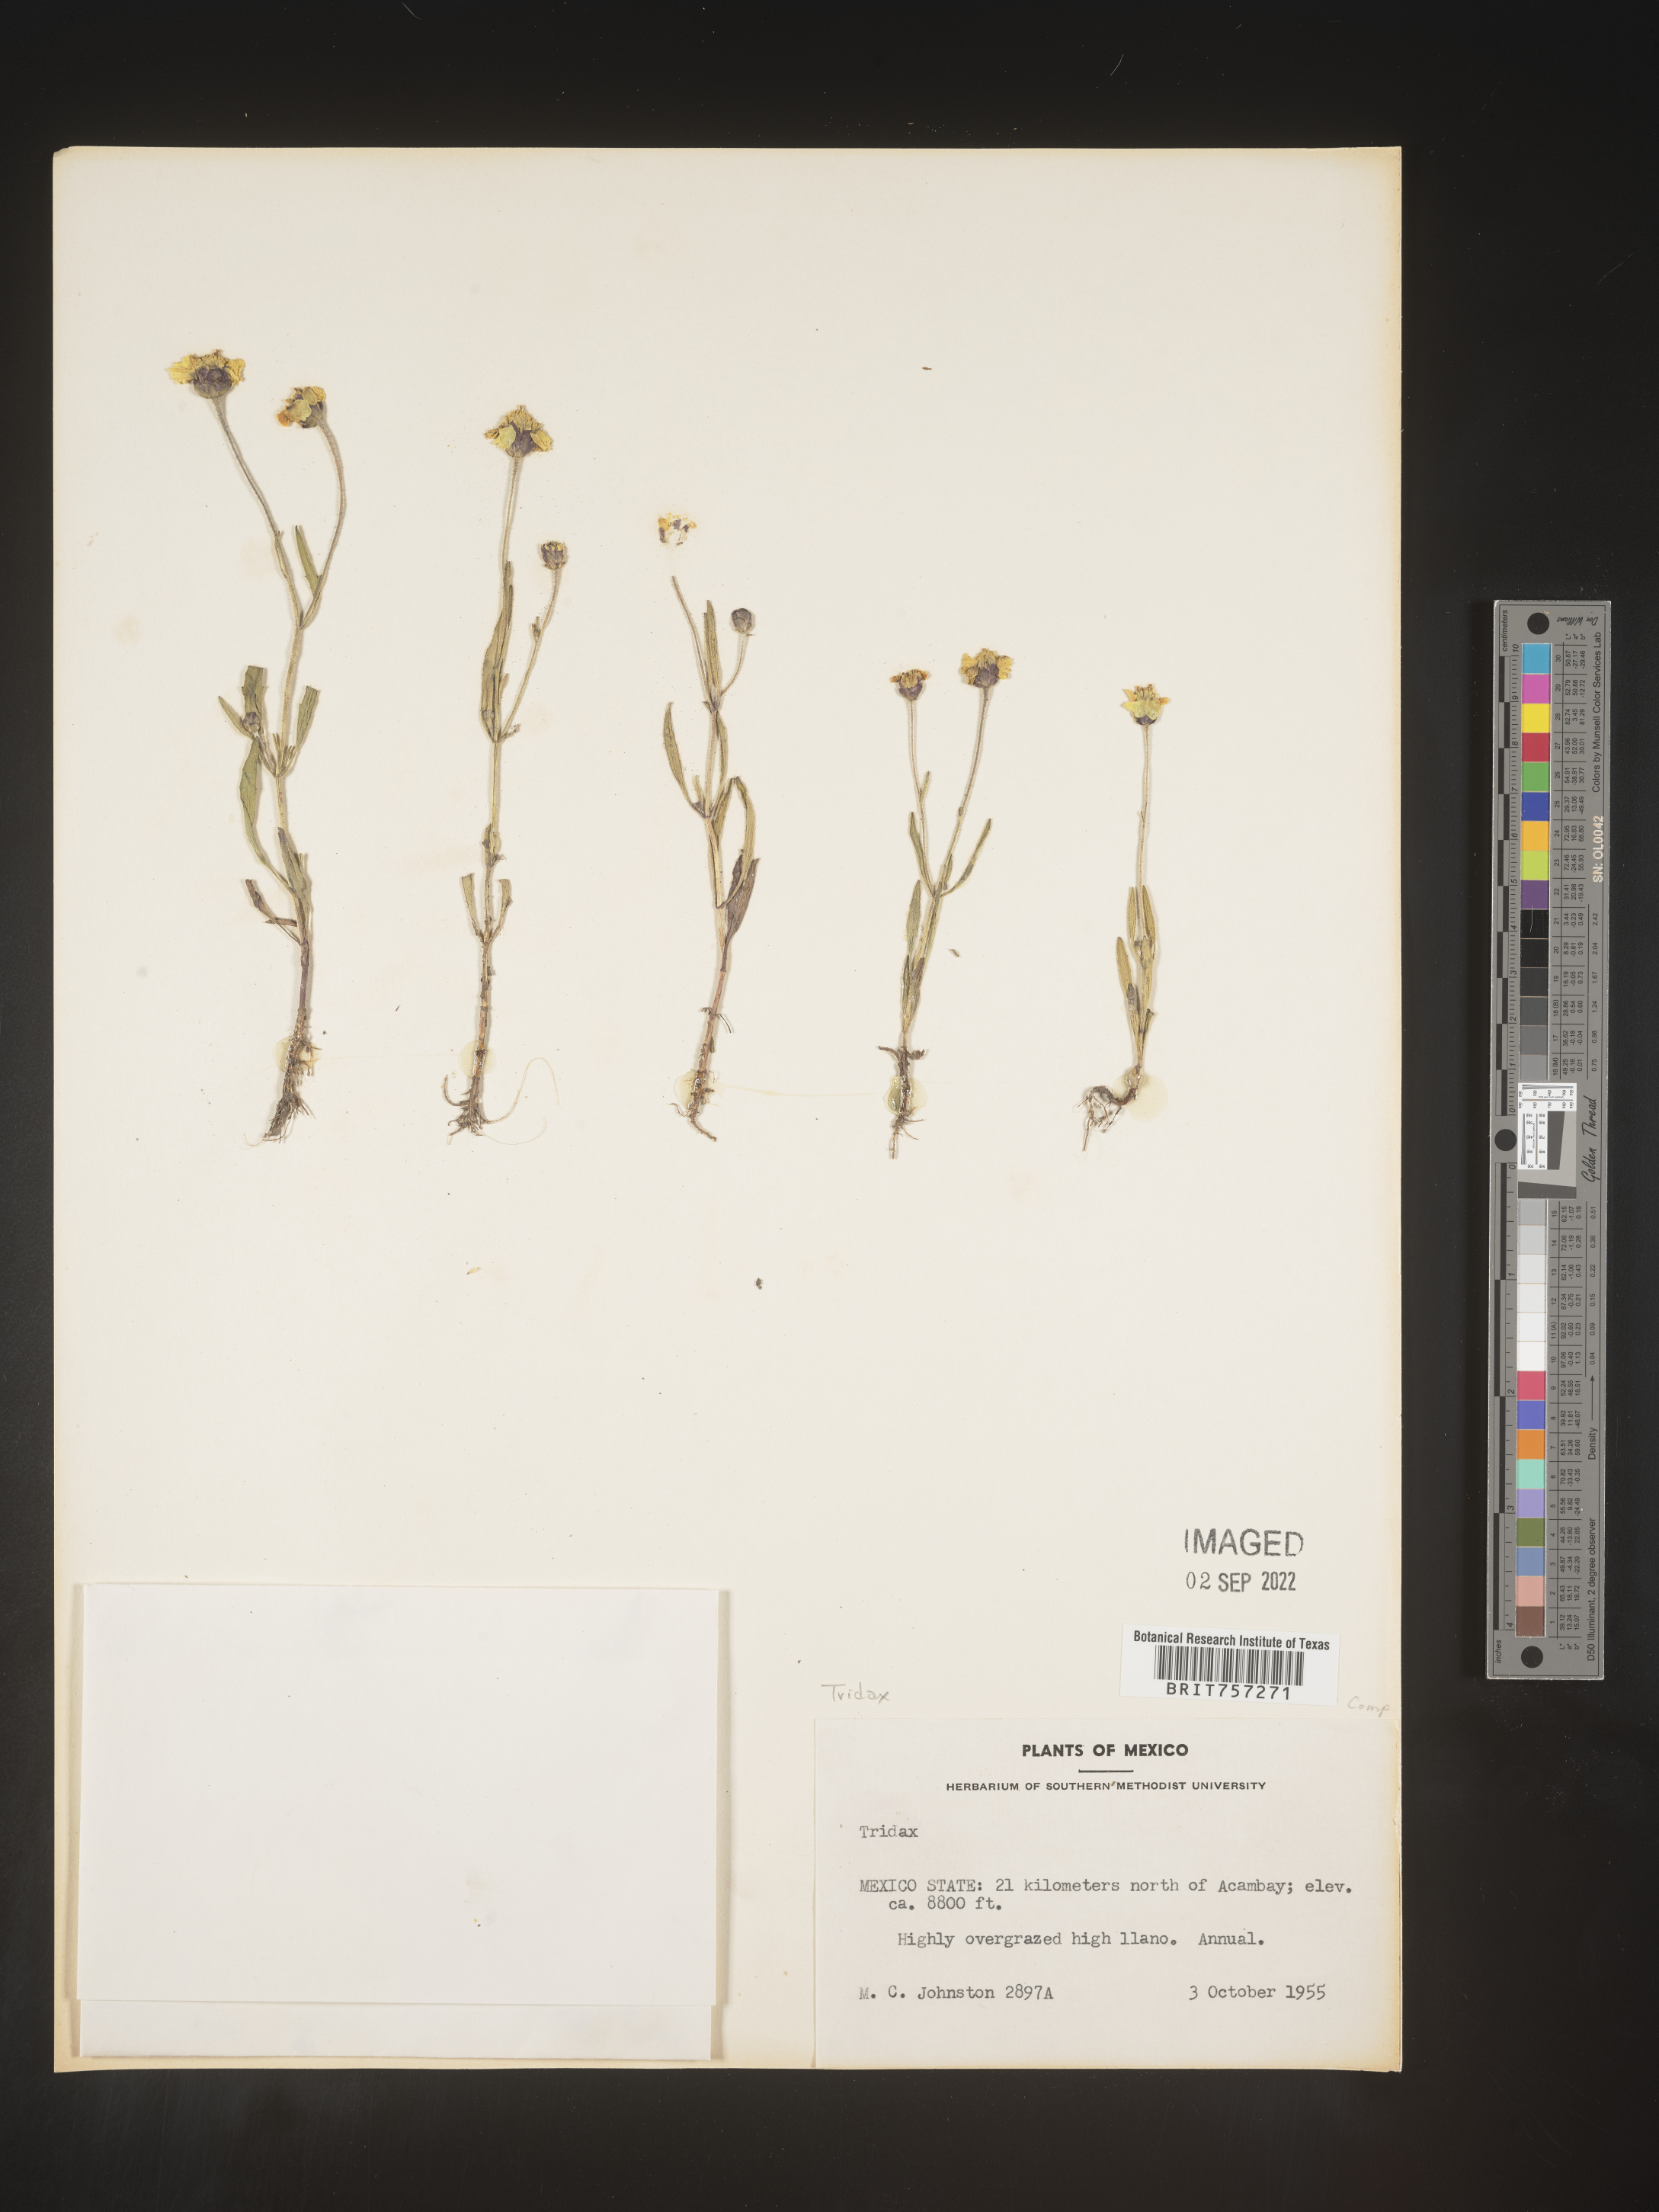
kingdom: Plantae
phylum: Tracheophyta
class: Magnoliopsida
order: Asterales
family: Asteraceae
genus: Tridax
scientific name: Tridax
